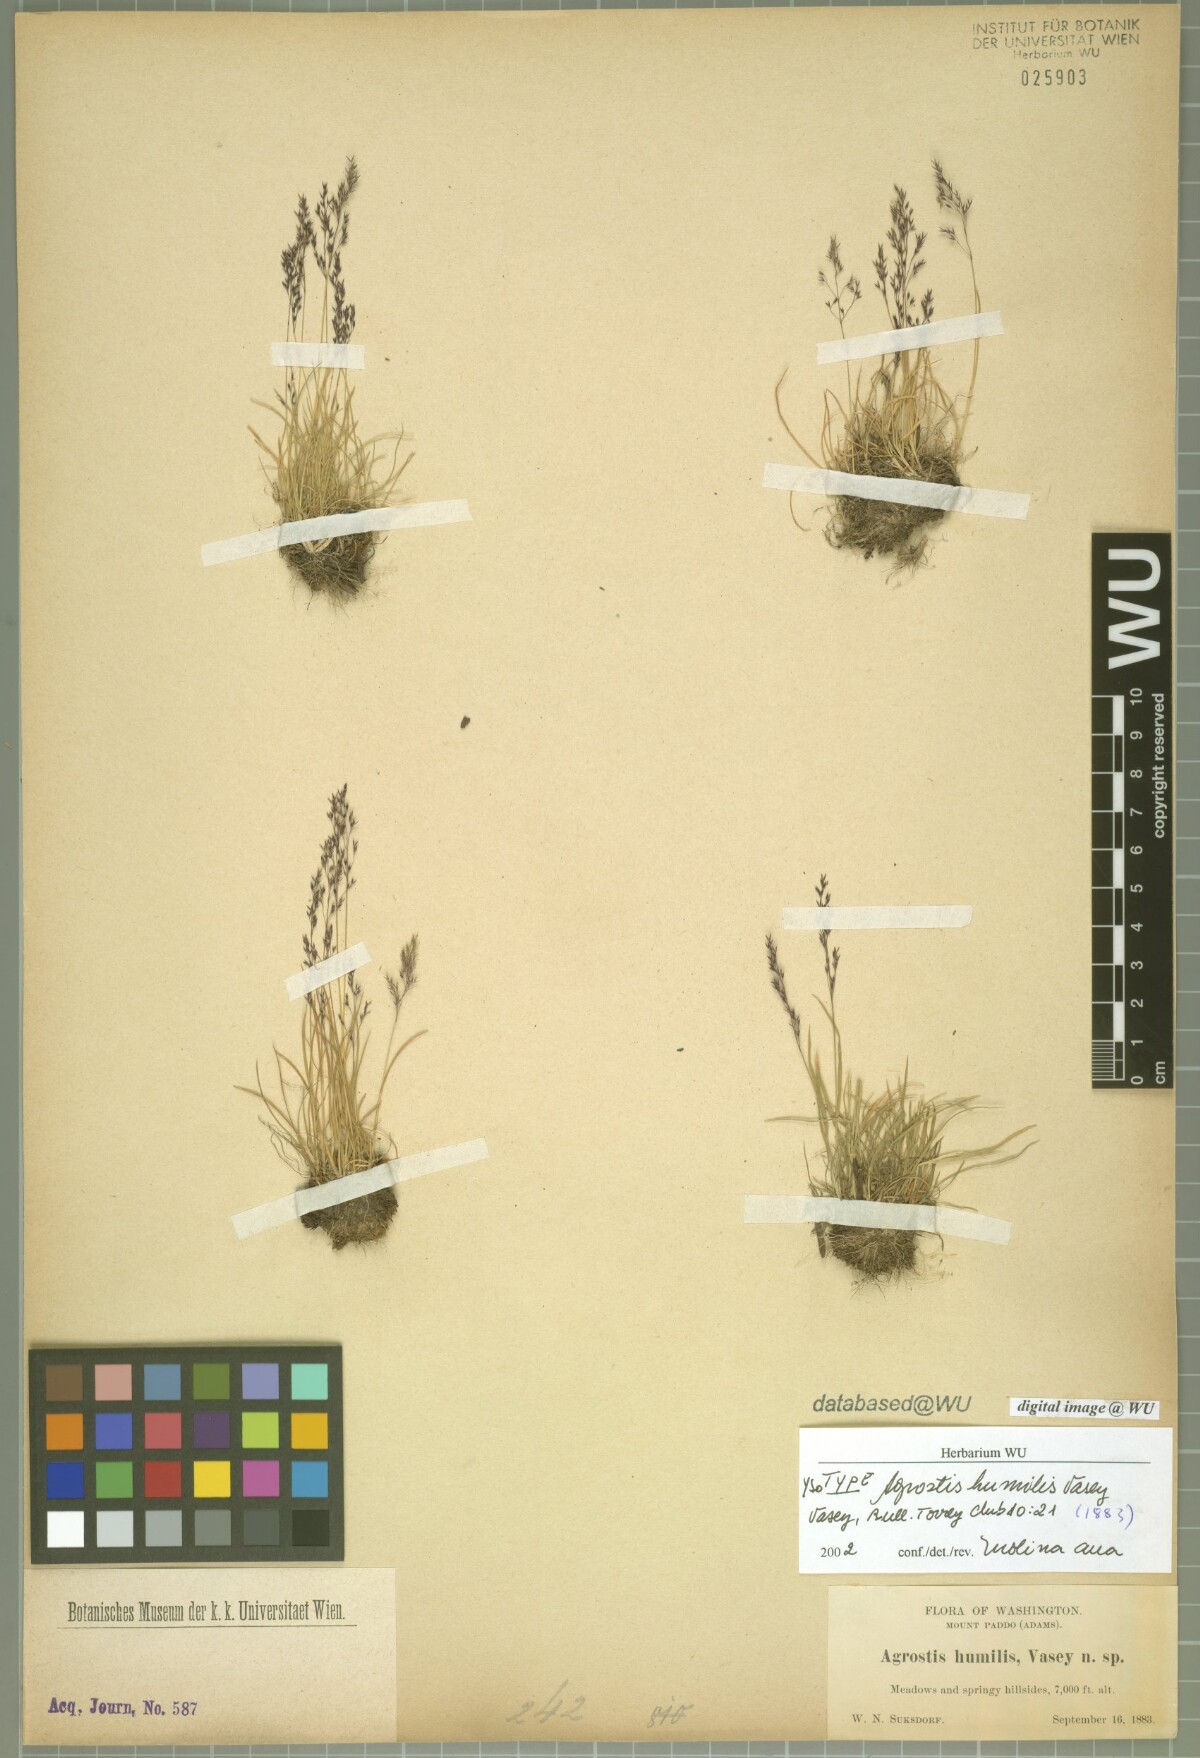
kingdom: Plantae
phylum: Tracheophyta
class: Liliopsida
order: Poales
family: Poaceae
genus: Podagrostis
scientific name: Podagrostis humilis
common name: Thurber's bentgrass
